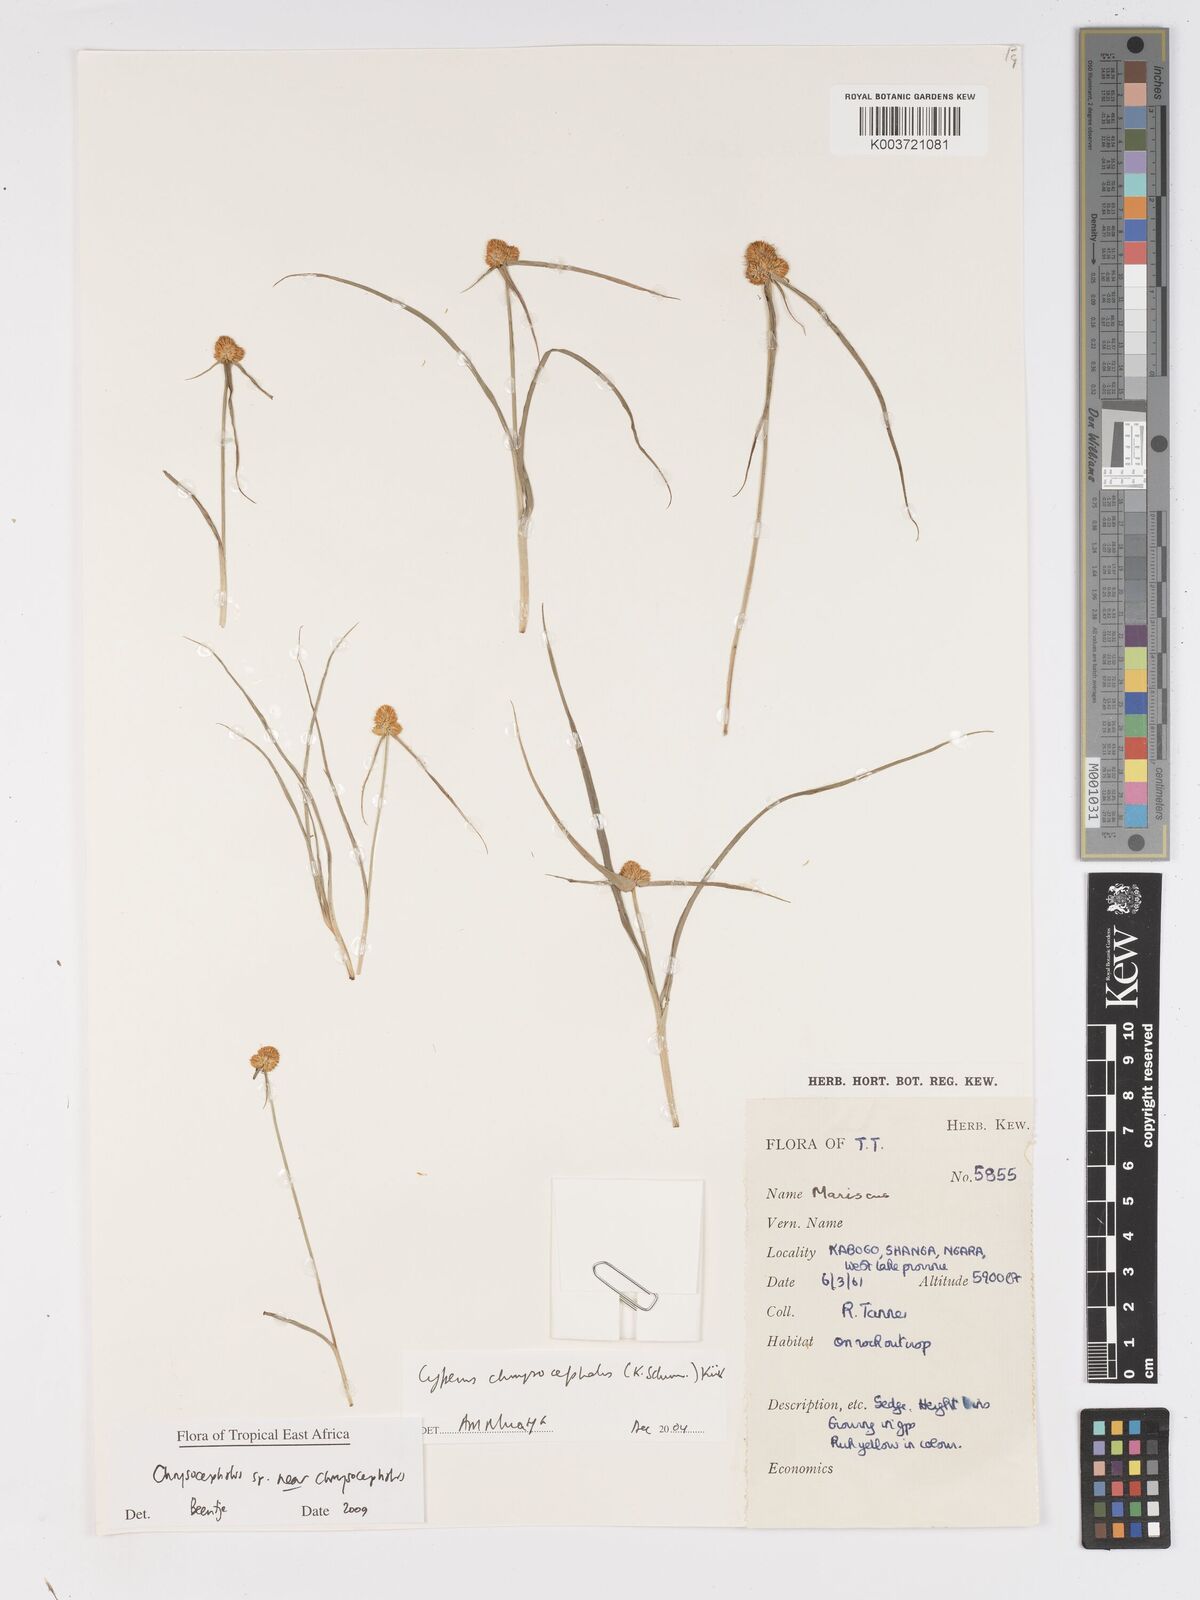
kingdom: Plantae
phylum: Tracheophyta
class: Liliopsida
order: Poales
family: Cyperaceae
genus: Cyperus
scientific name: Cyperus chrysocephalus
